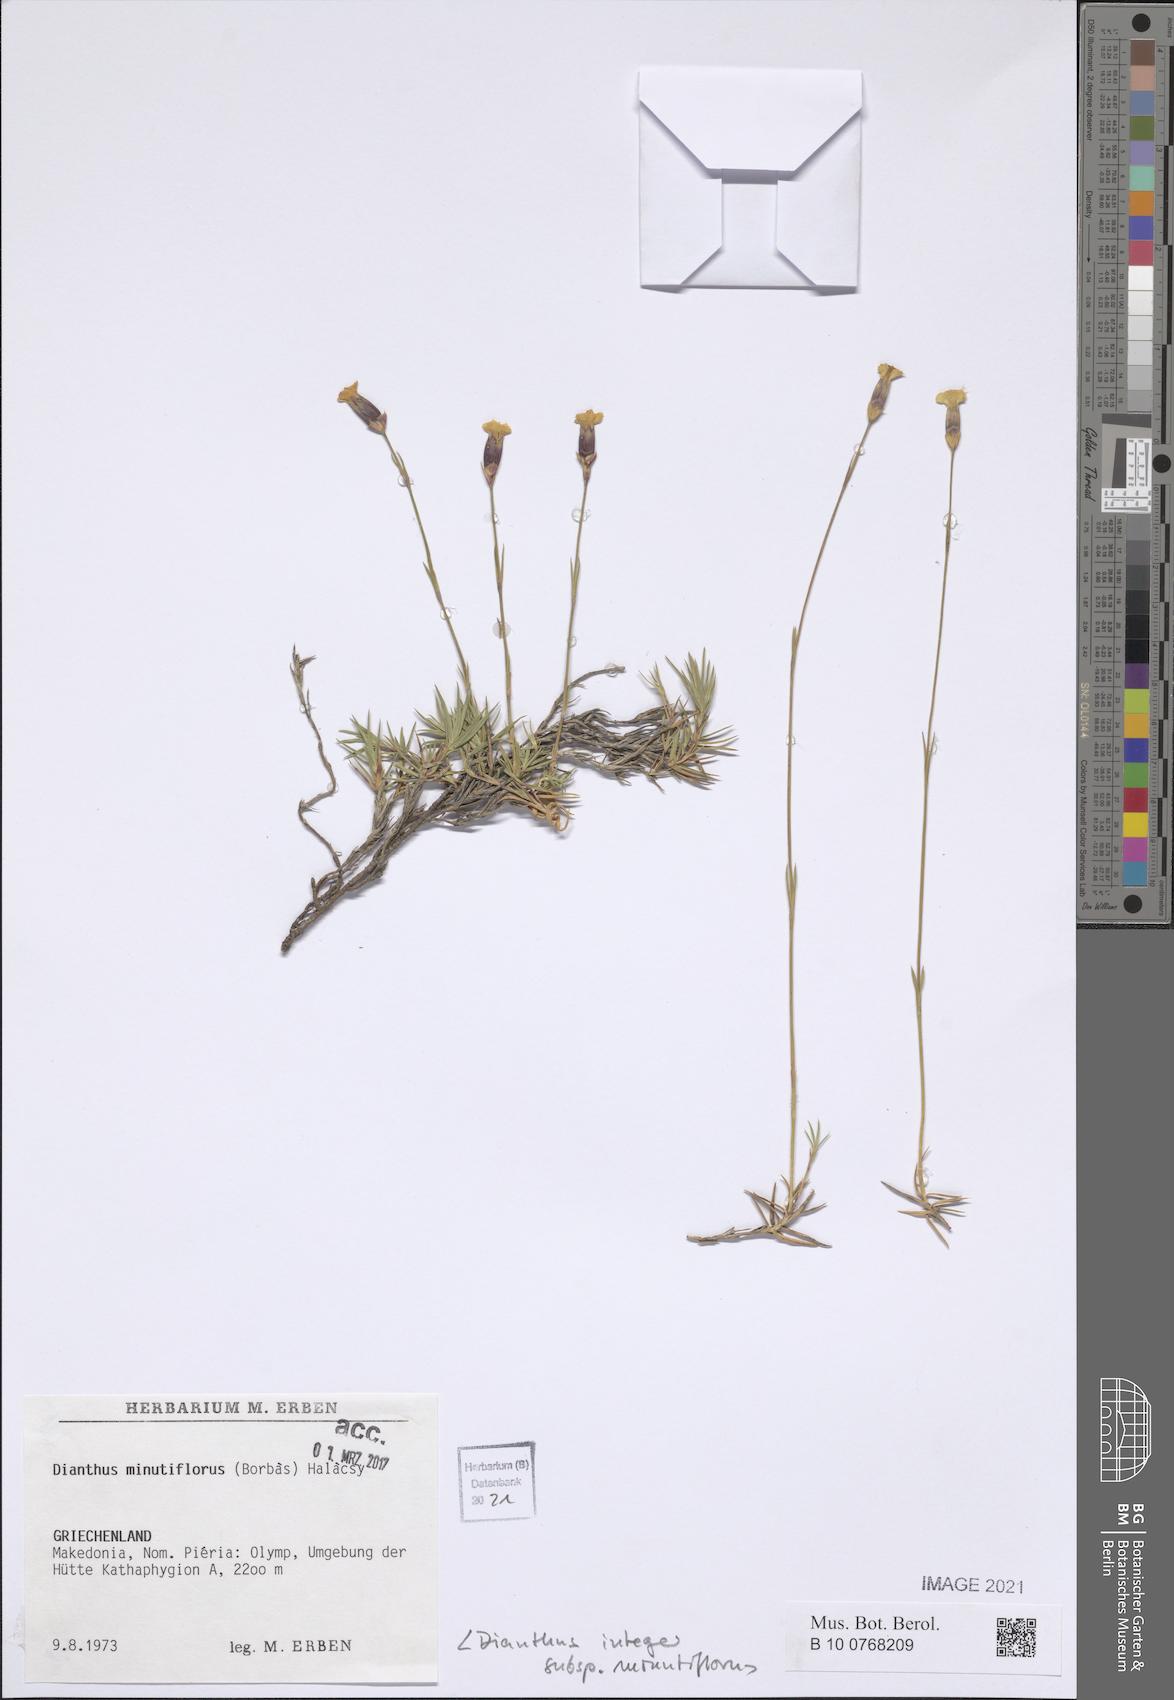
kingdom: Plantae
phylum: Tracheophyta
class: Magnoliopsida
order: Caryophyllales
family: Caryophyllaceae
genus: Dianthus
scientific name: Dianthus integer
